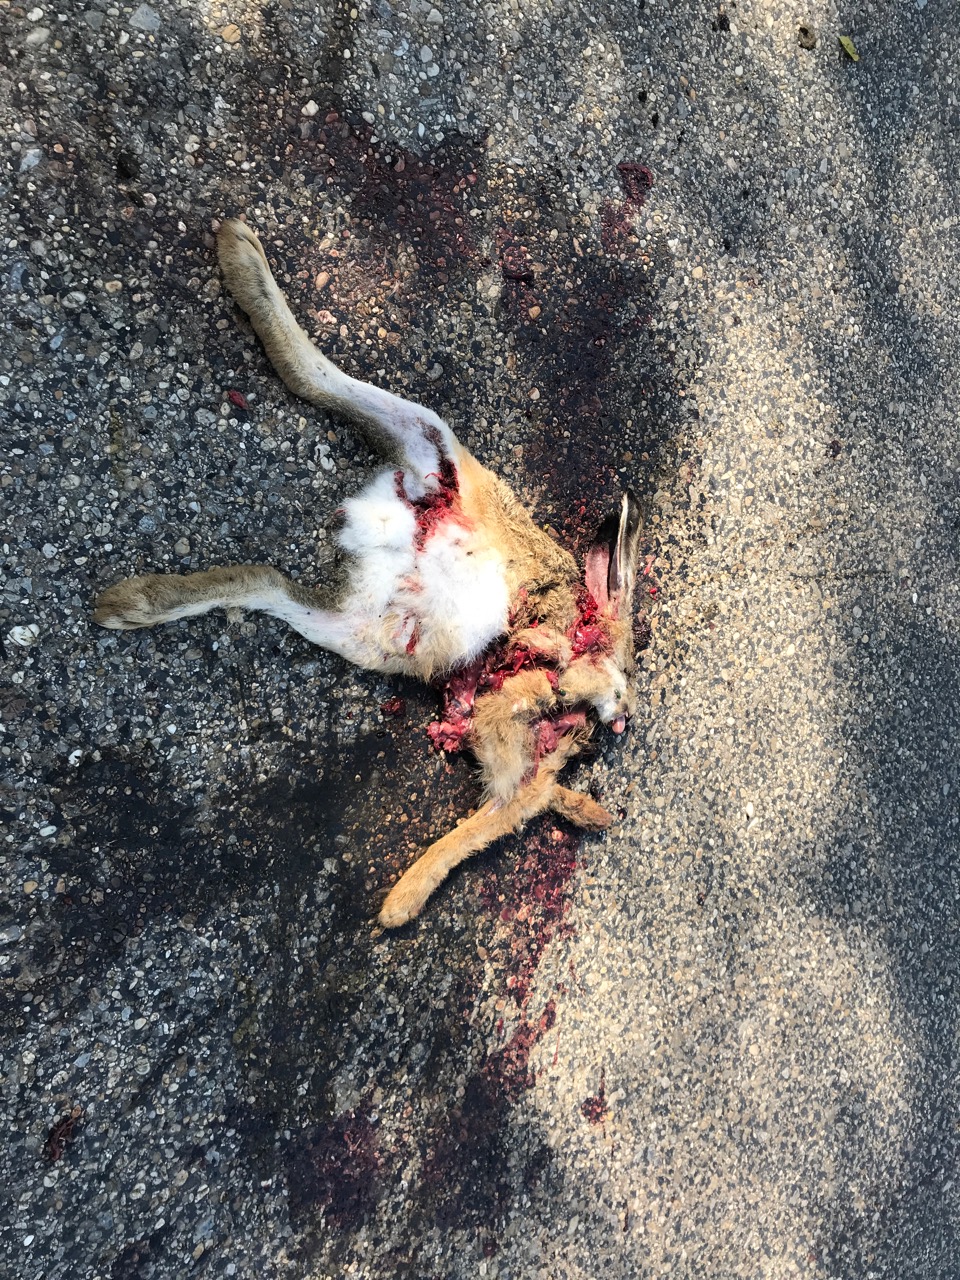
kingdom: Animalia
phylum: Chordata
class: Mammalia
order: Lagomorpha
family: Leporidae
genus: Lepus
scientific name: Lepus europaeus
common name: European hare
